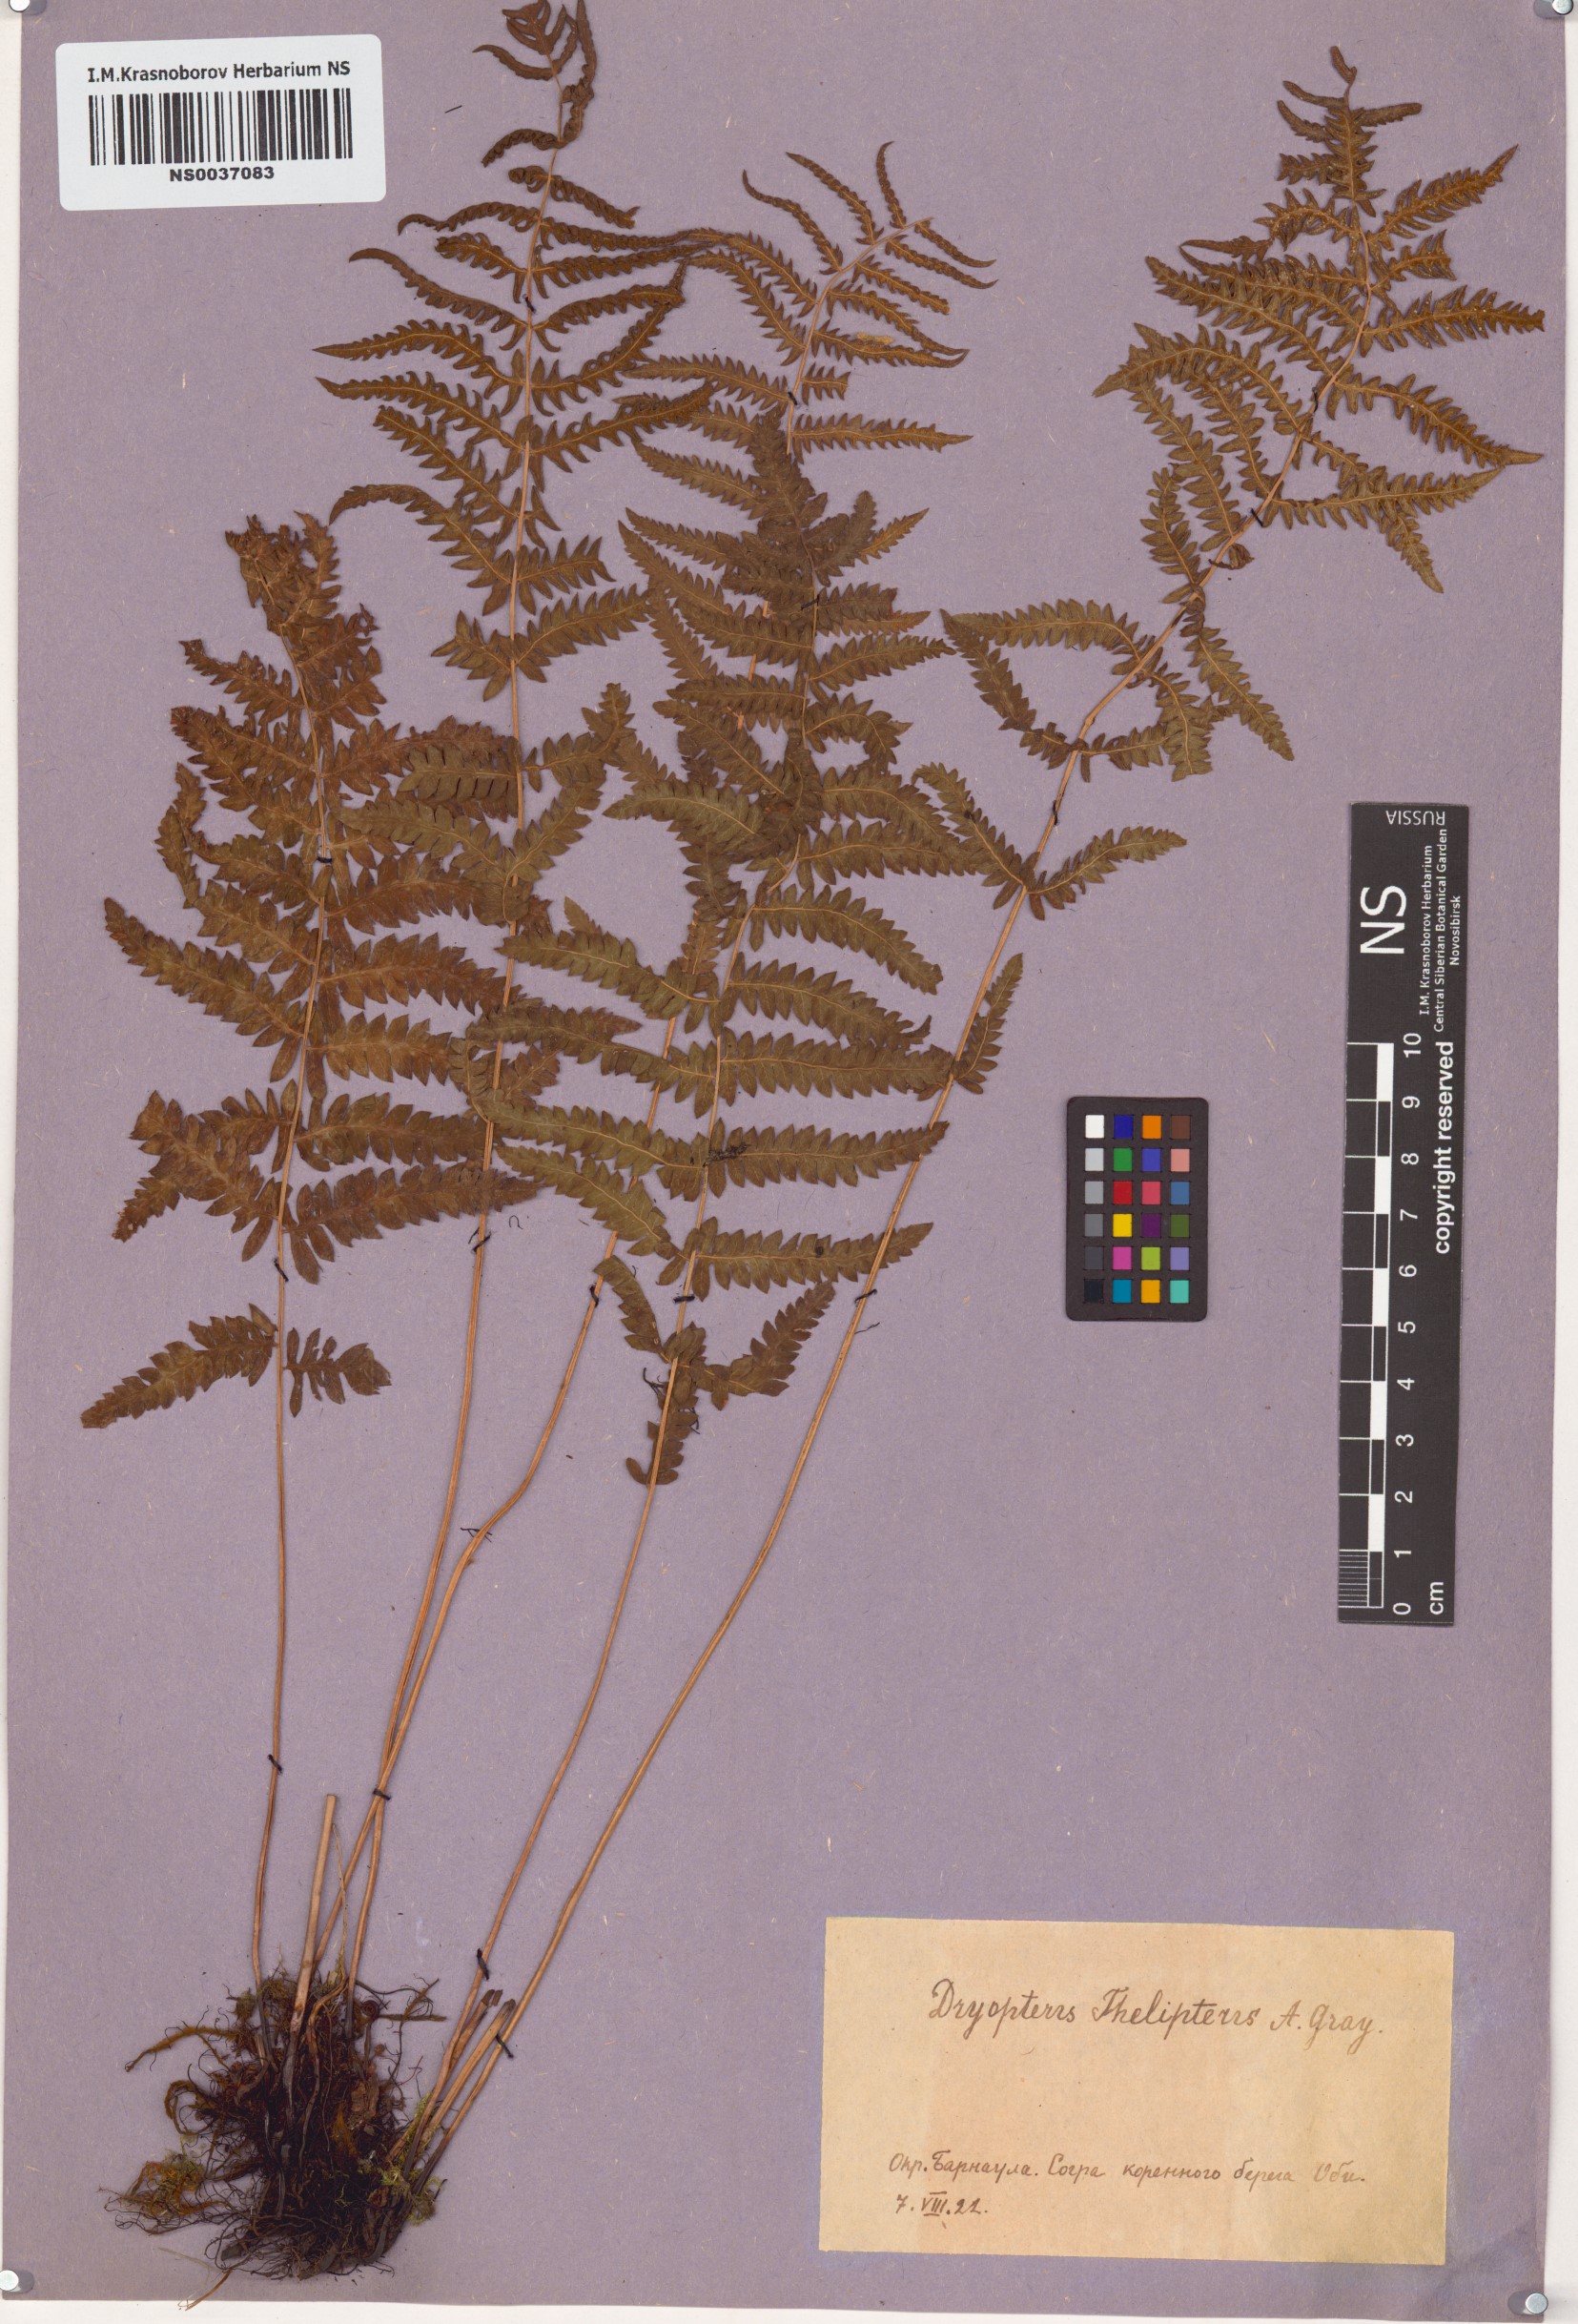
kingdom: Plantae
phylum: Tracheophyta
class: Polypodiopsida
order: Polypodiales
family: Thelypteridaceae
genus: Thelypteris
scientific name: Thelypteris palustris
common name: Marsh fern
